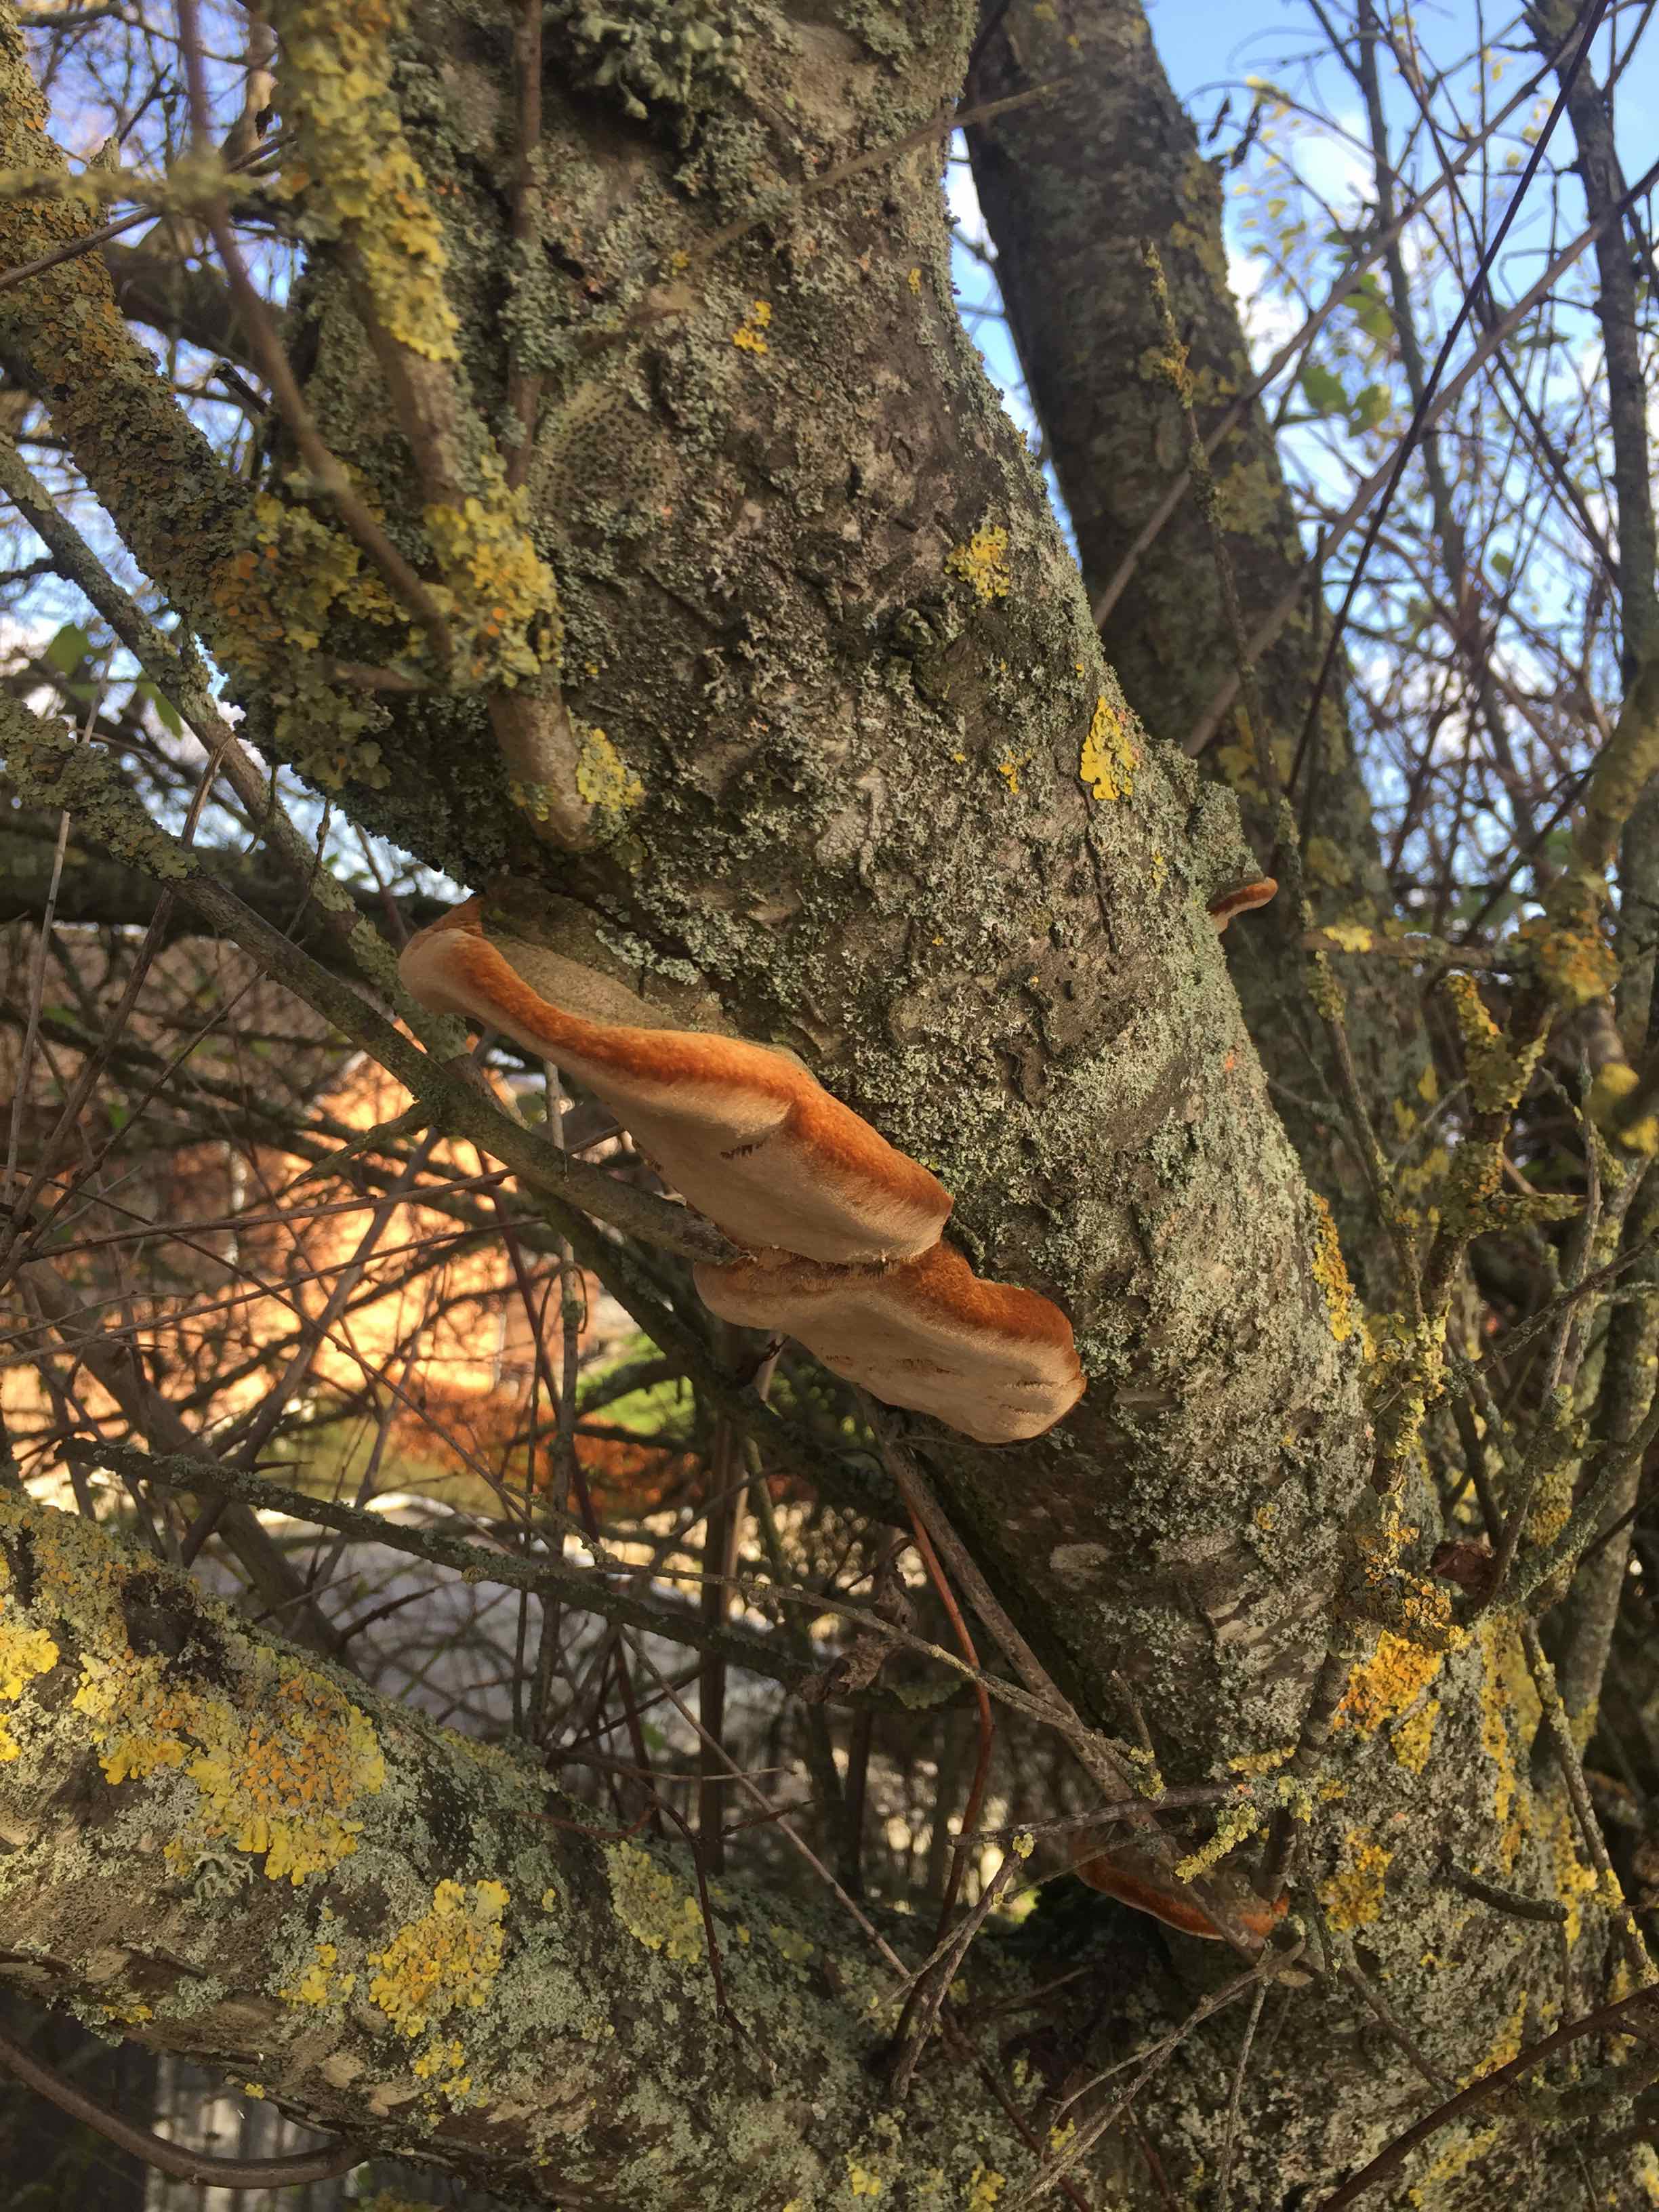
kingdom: Fungi
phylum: Basidiomycota
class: Agaricomycetes
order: Hymenochaetales
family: Hymenochaetaceae
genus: Phellinus
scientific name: Phellinus pomaceus
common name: blomme-ildporesvamp
